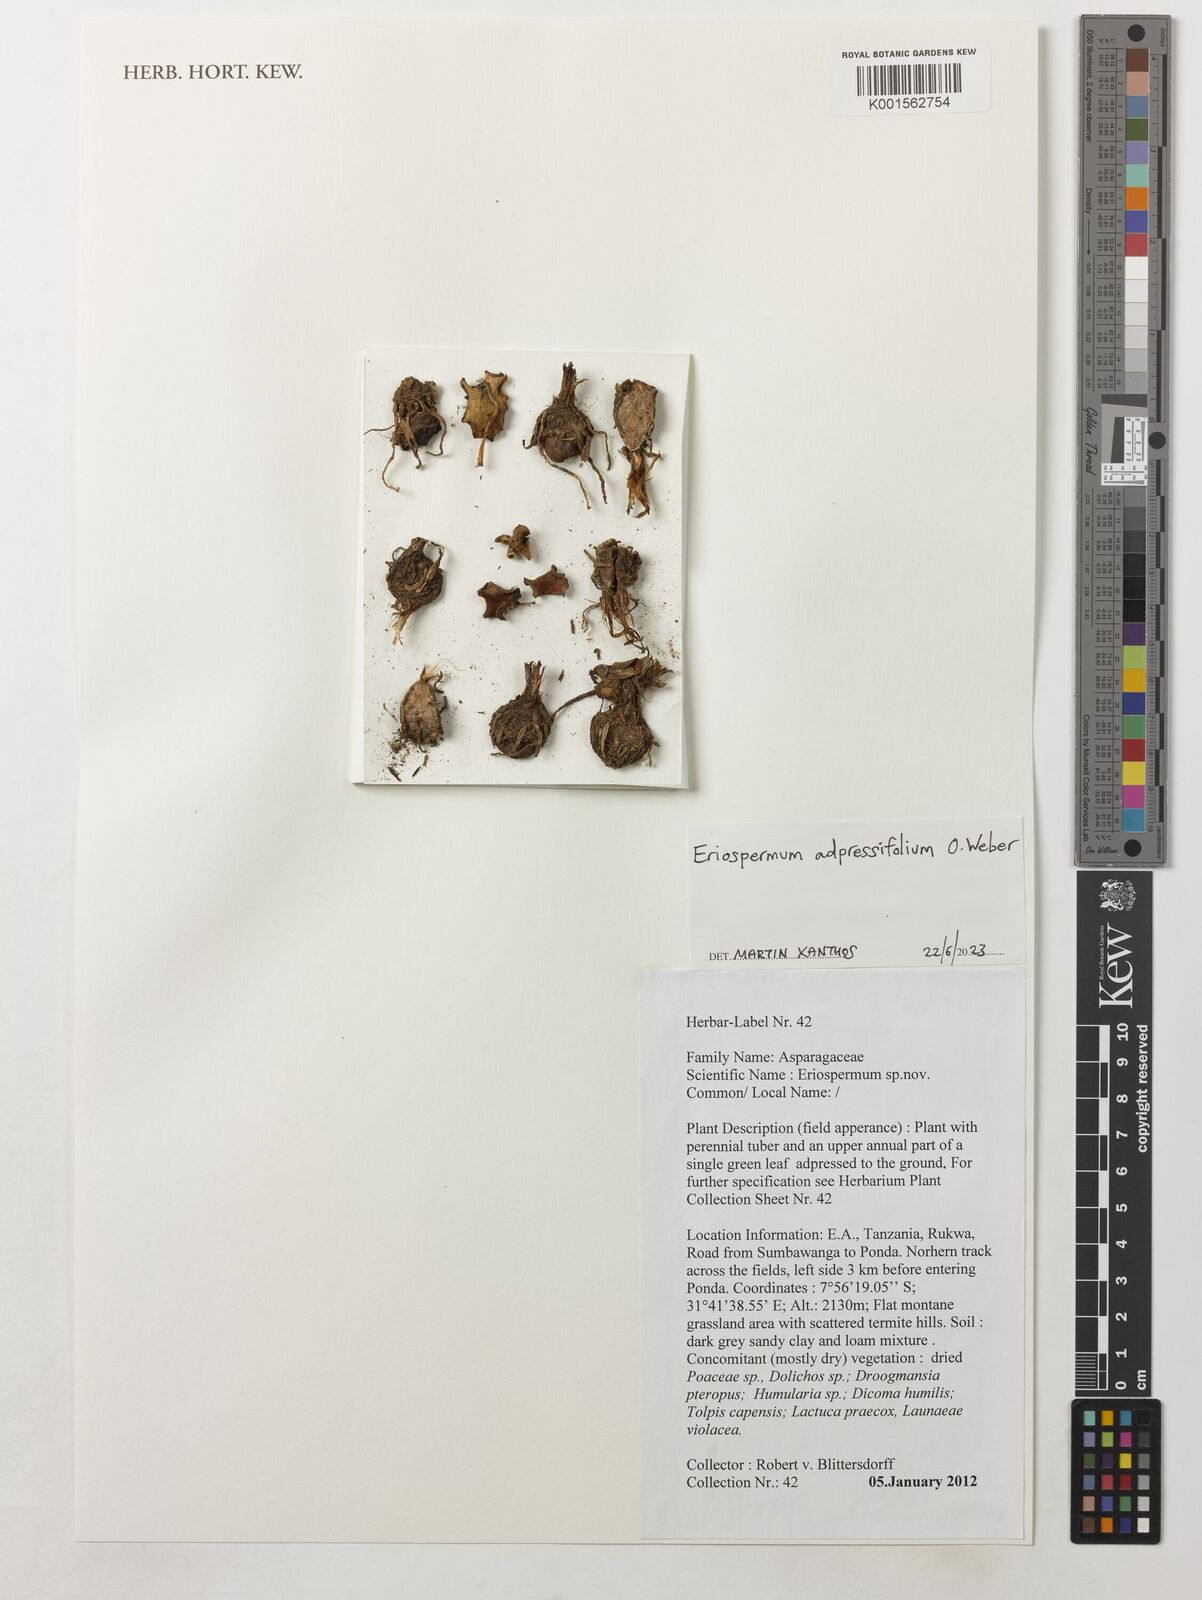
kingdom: Plantae
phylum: Tracheophyta
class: Liliopsida
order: Asparagales
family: Asparagaceae
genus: Eriospermum
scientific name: Eriospermum adpressifolium
